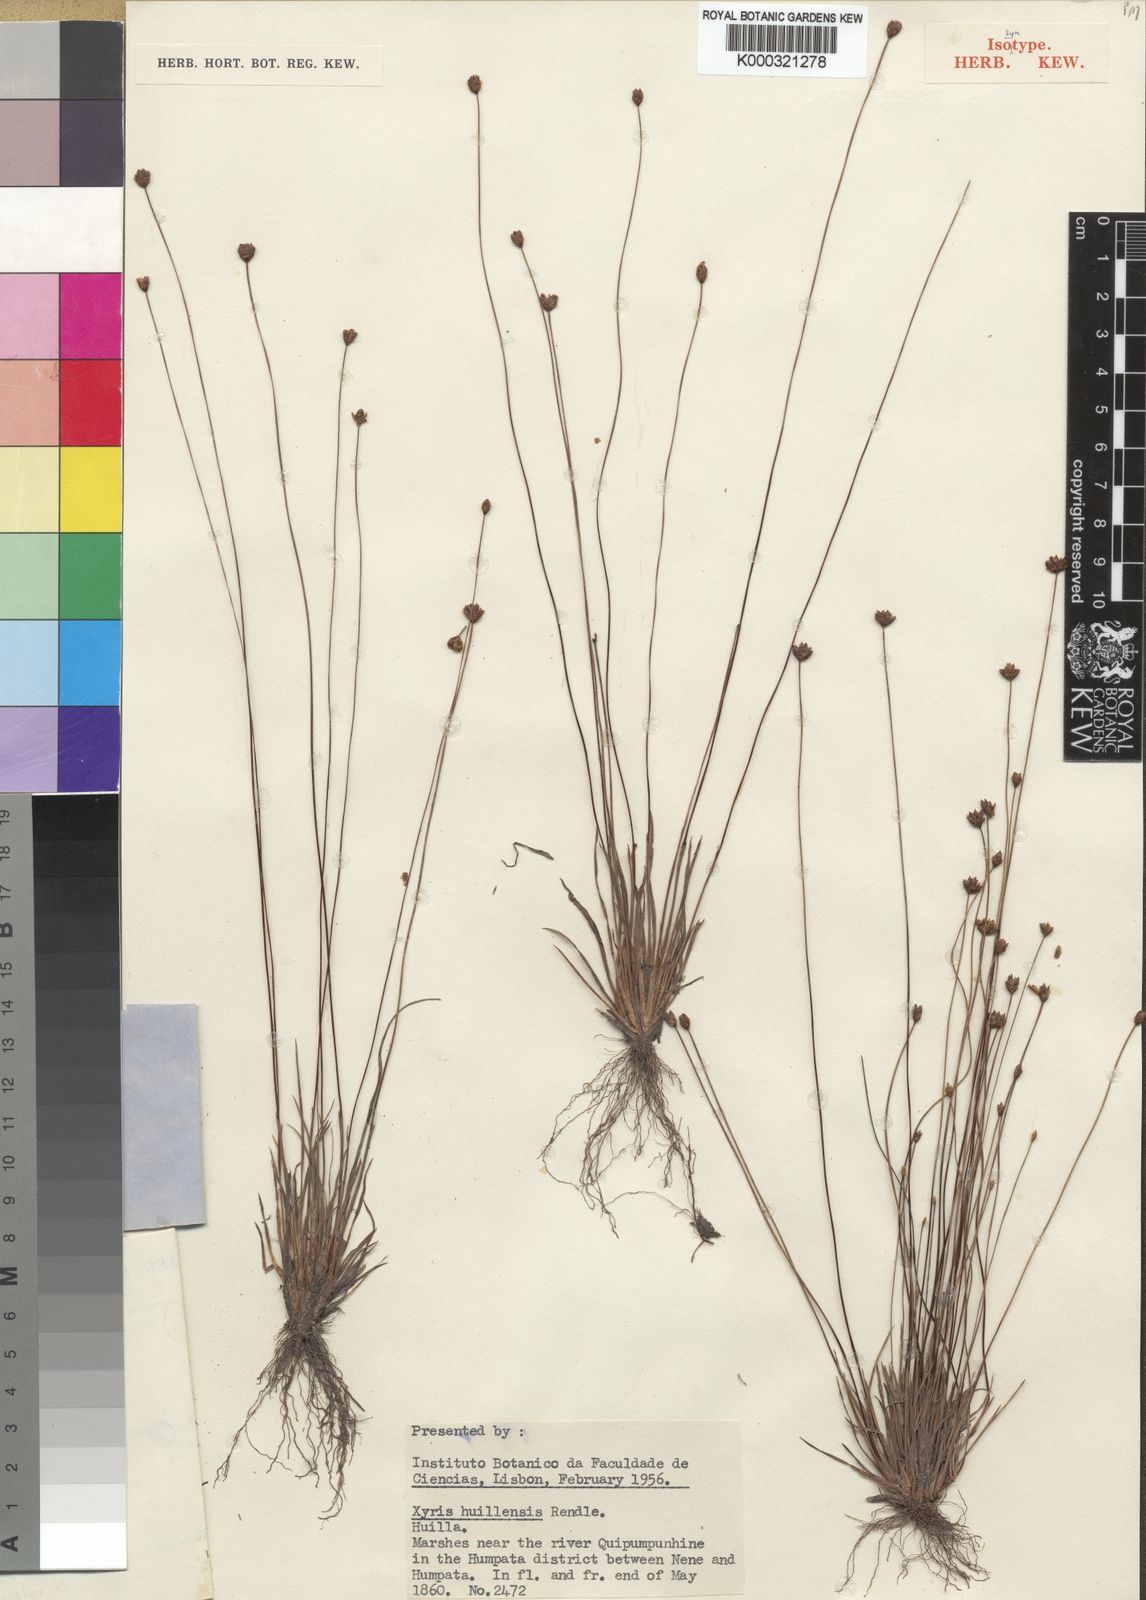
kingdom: Plantae
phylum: Tracheophyta
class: Liliopsida
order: Poales
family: Xyridaceae
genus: Xyris
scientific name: Xyris huillensis
